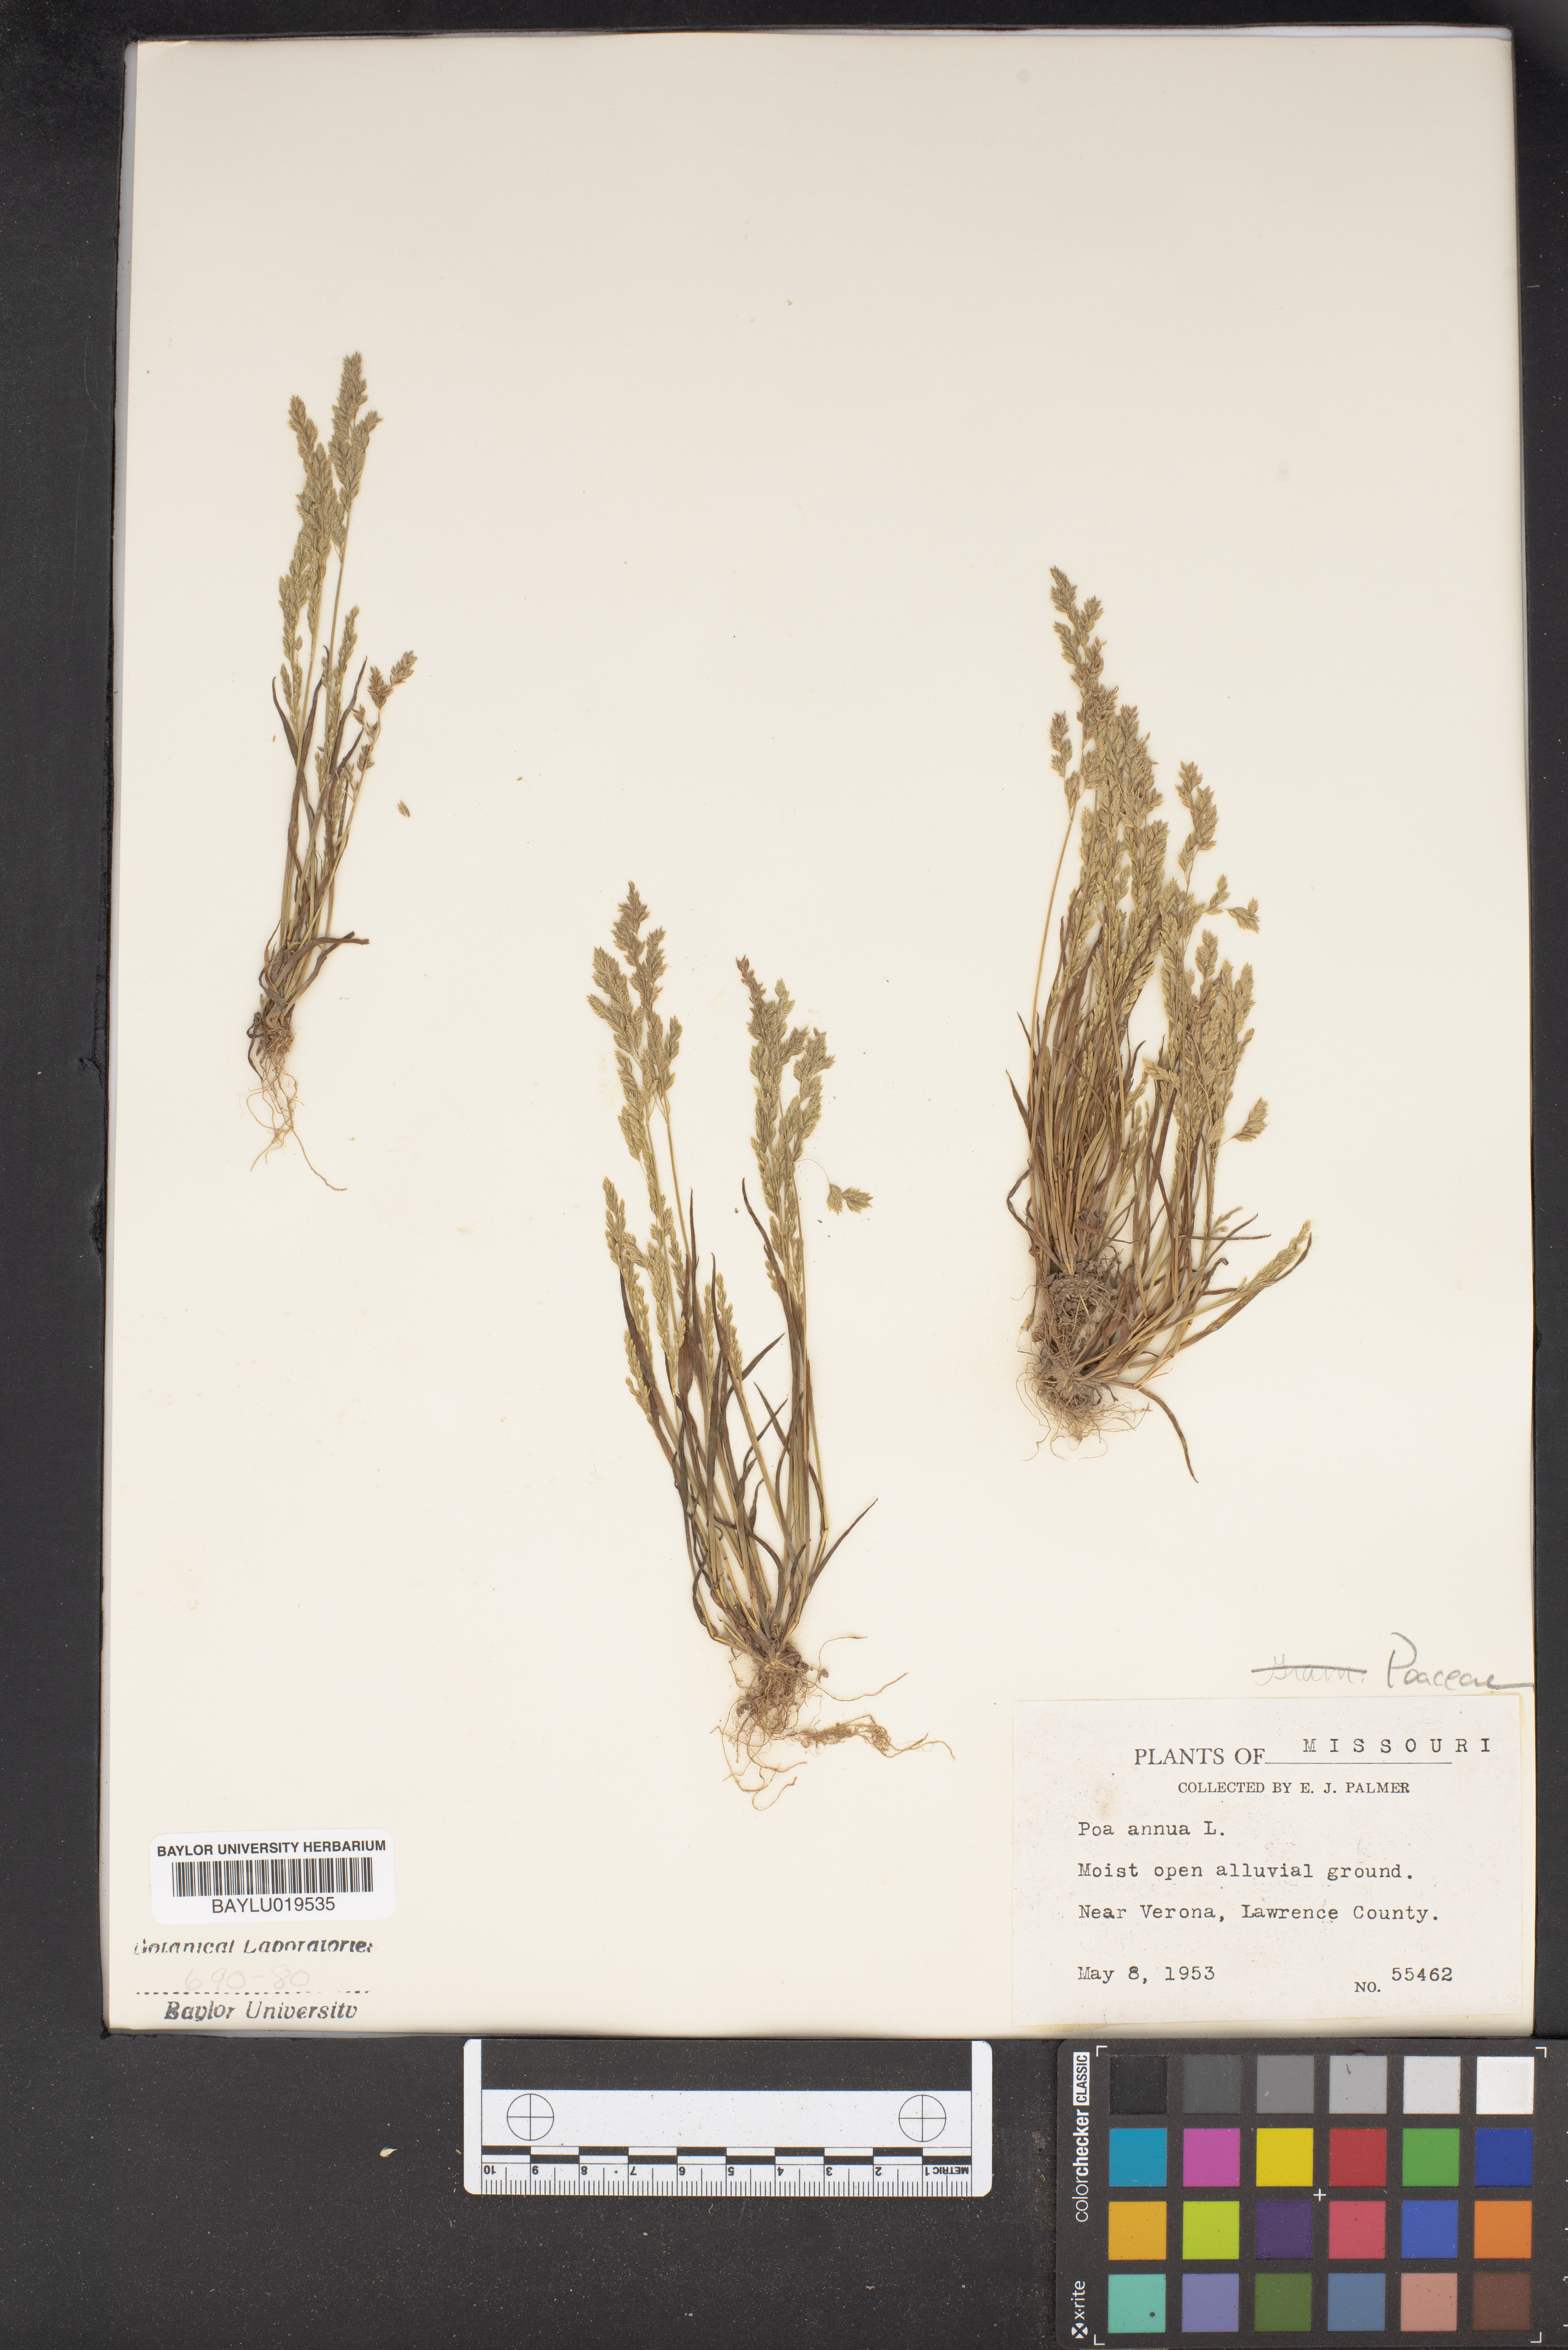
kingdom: Plantae
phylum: Tracheophyta
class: Liliopsida
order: Poales
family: Poaceae
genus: Poa
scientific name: Poa annua
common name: Annual bluegrass
